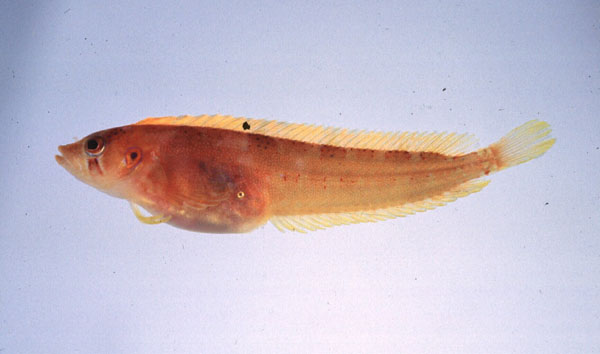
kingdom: Animalia
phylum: Chordata
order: Perciformes
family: Clinidae
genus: Pavoclinus
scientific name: Pavoclinus profundus
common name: Deepwater klipfish
